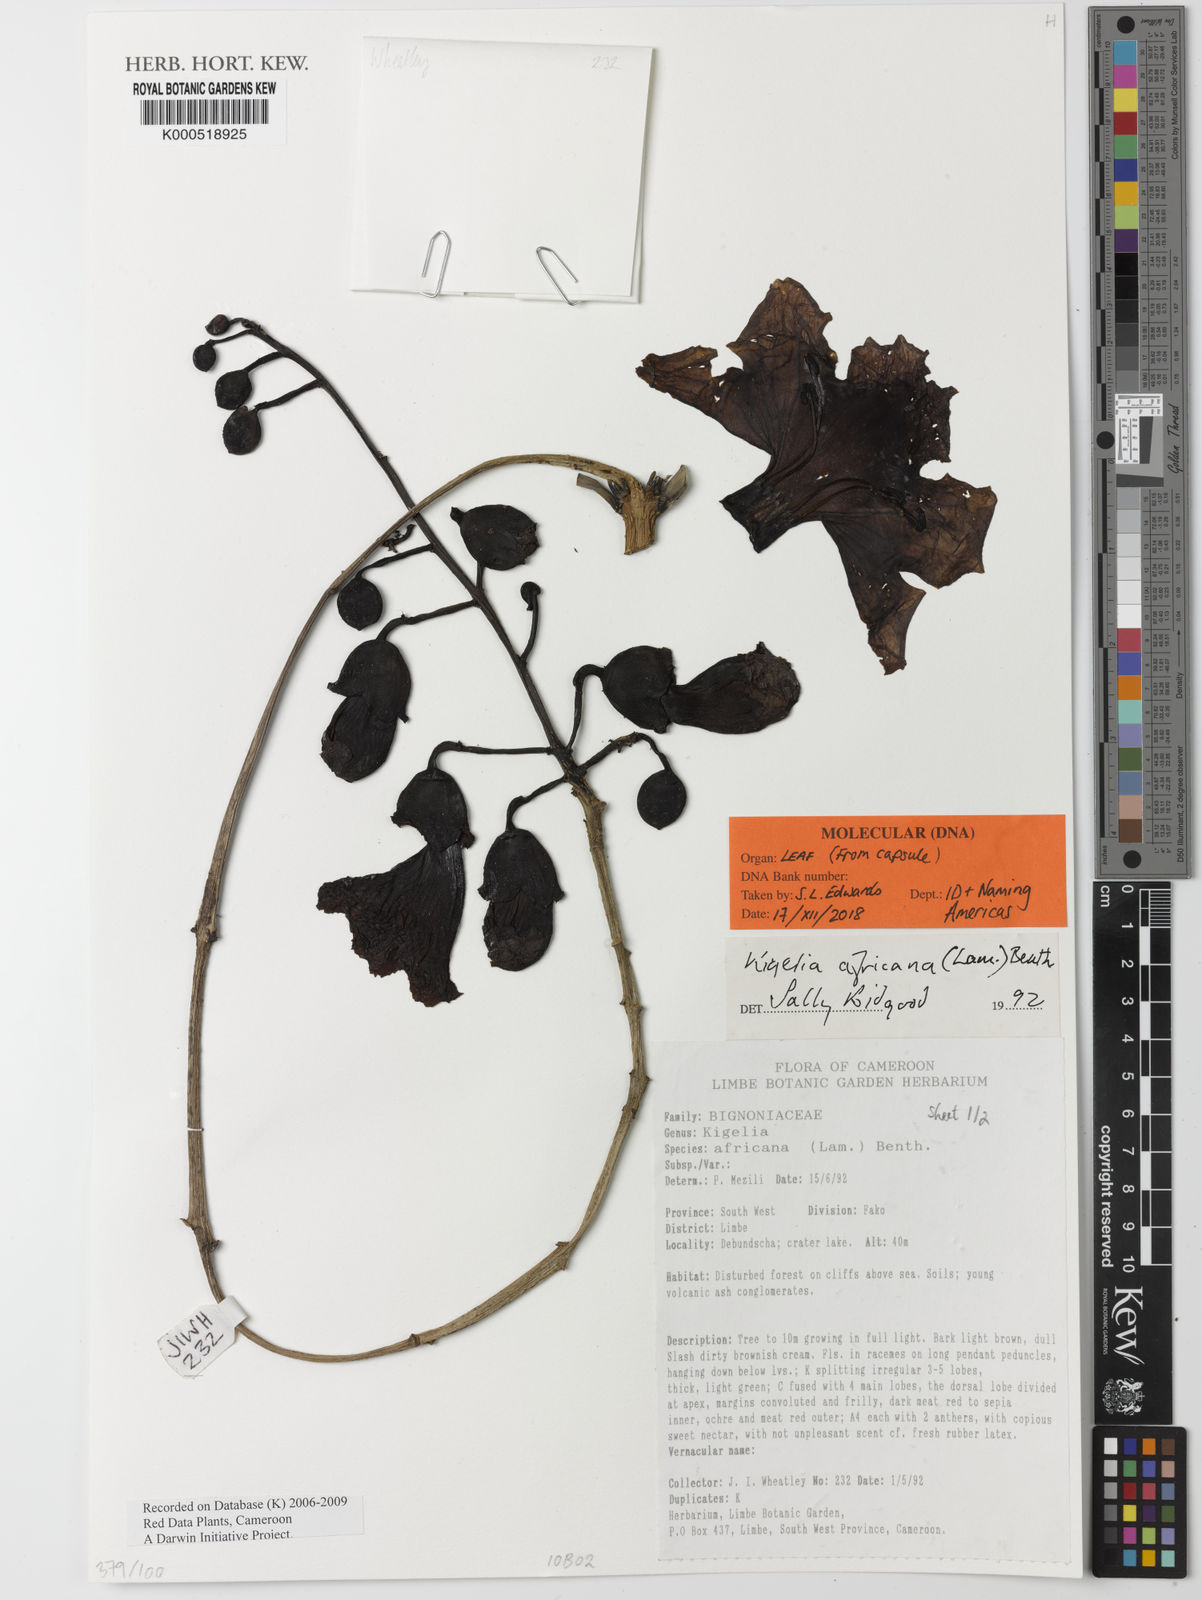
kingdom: Plantae
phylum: Tracheophyta
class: Magnoliopsida
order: Lamiales
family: Bignoniaceae
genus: Kigelia
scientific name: Kigelia africana
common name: Sausage tree
